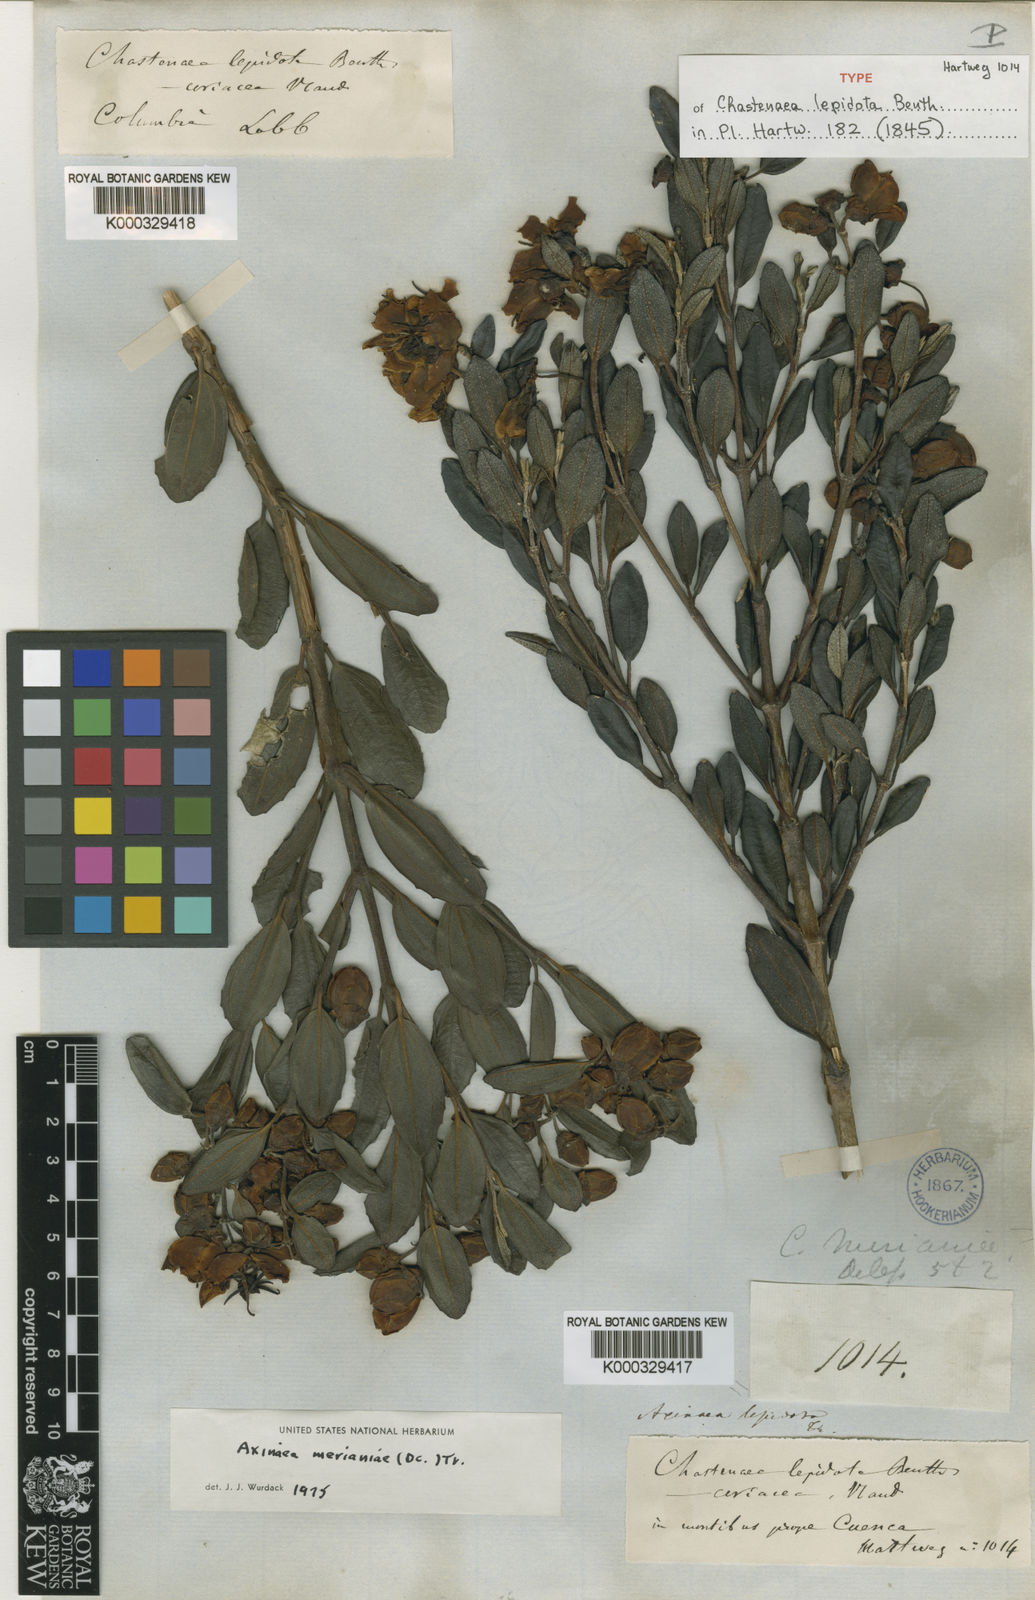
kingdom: Plantae
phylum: Tracheophyta
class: Magnoliopsida
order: Myrtales
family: Melastomataceae
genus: Axinaea
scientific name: Axinaea merianiae
